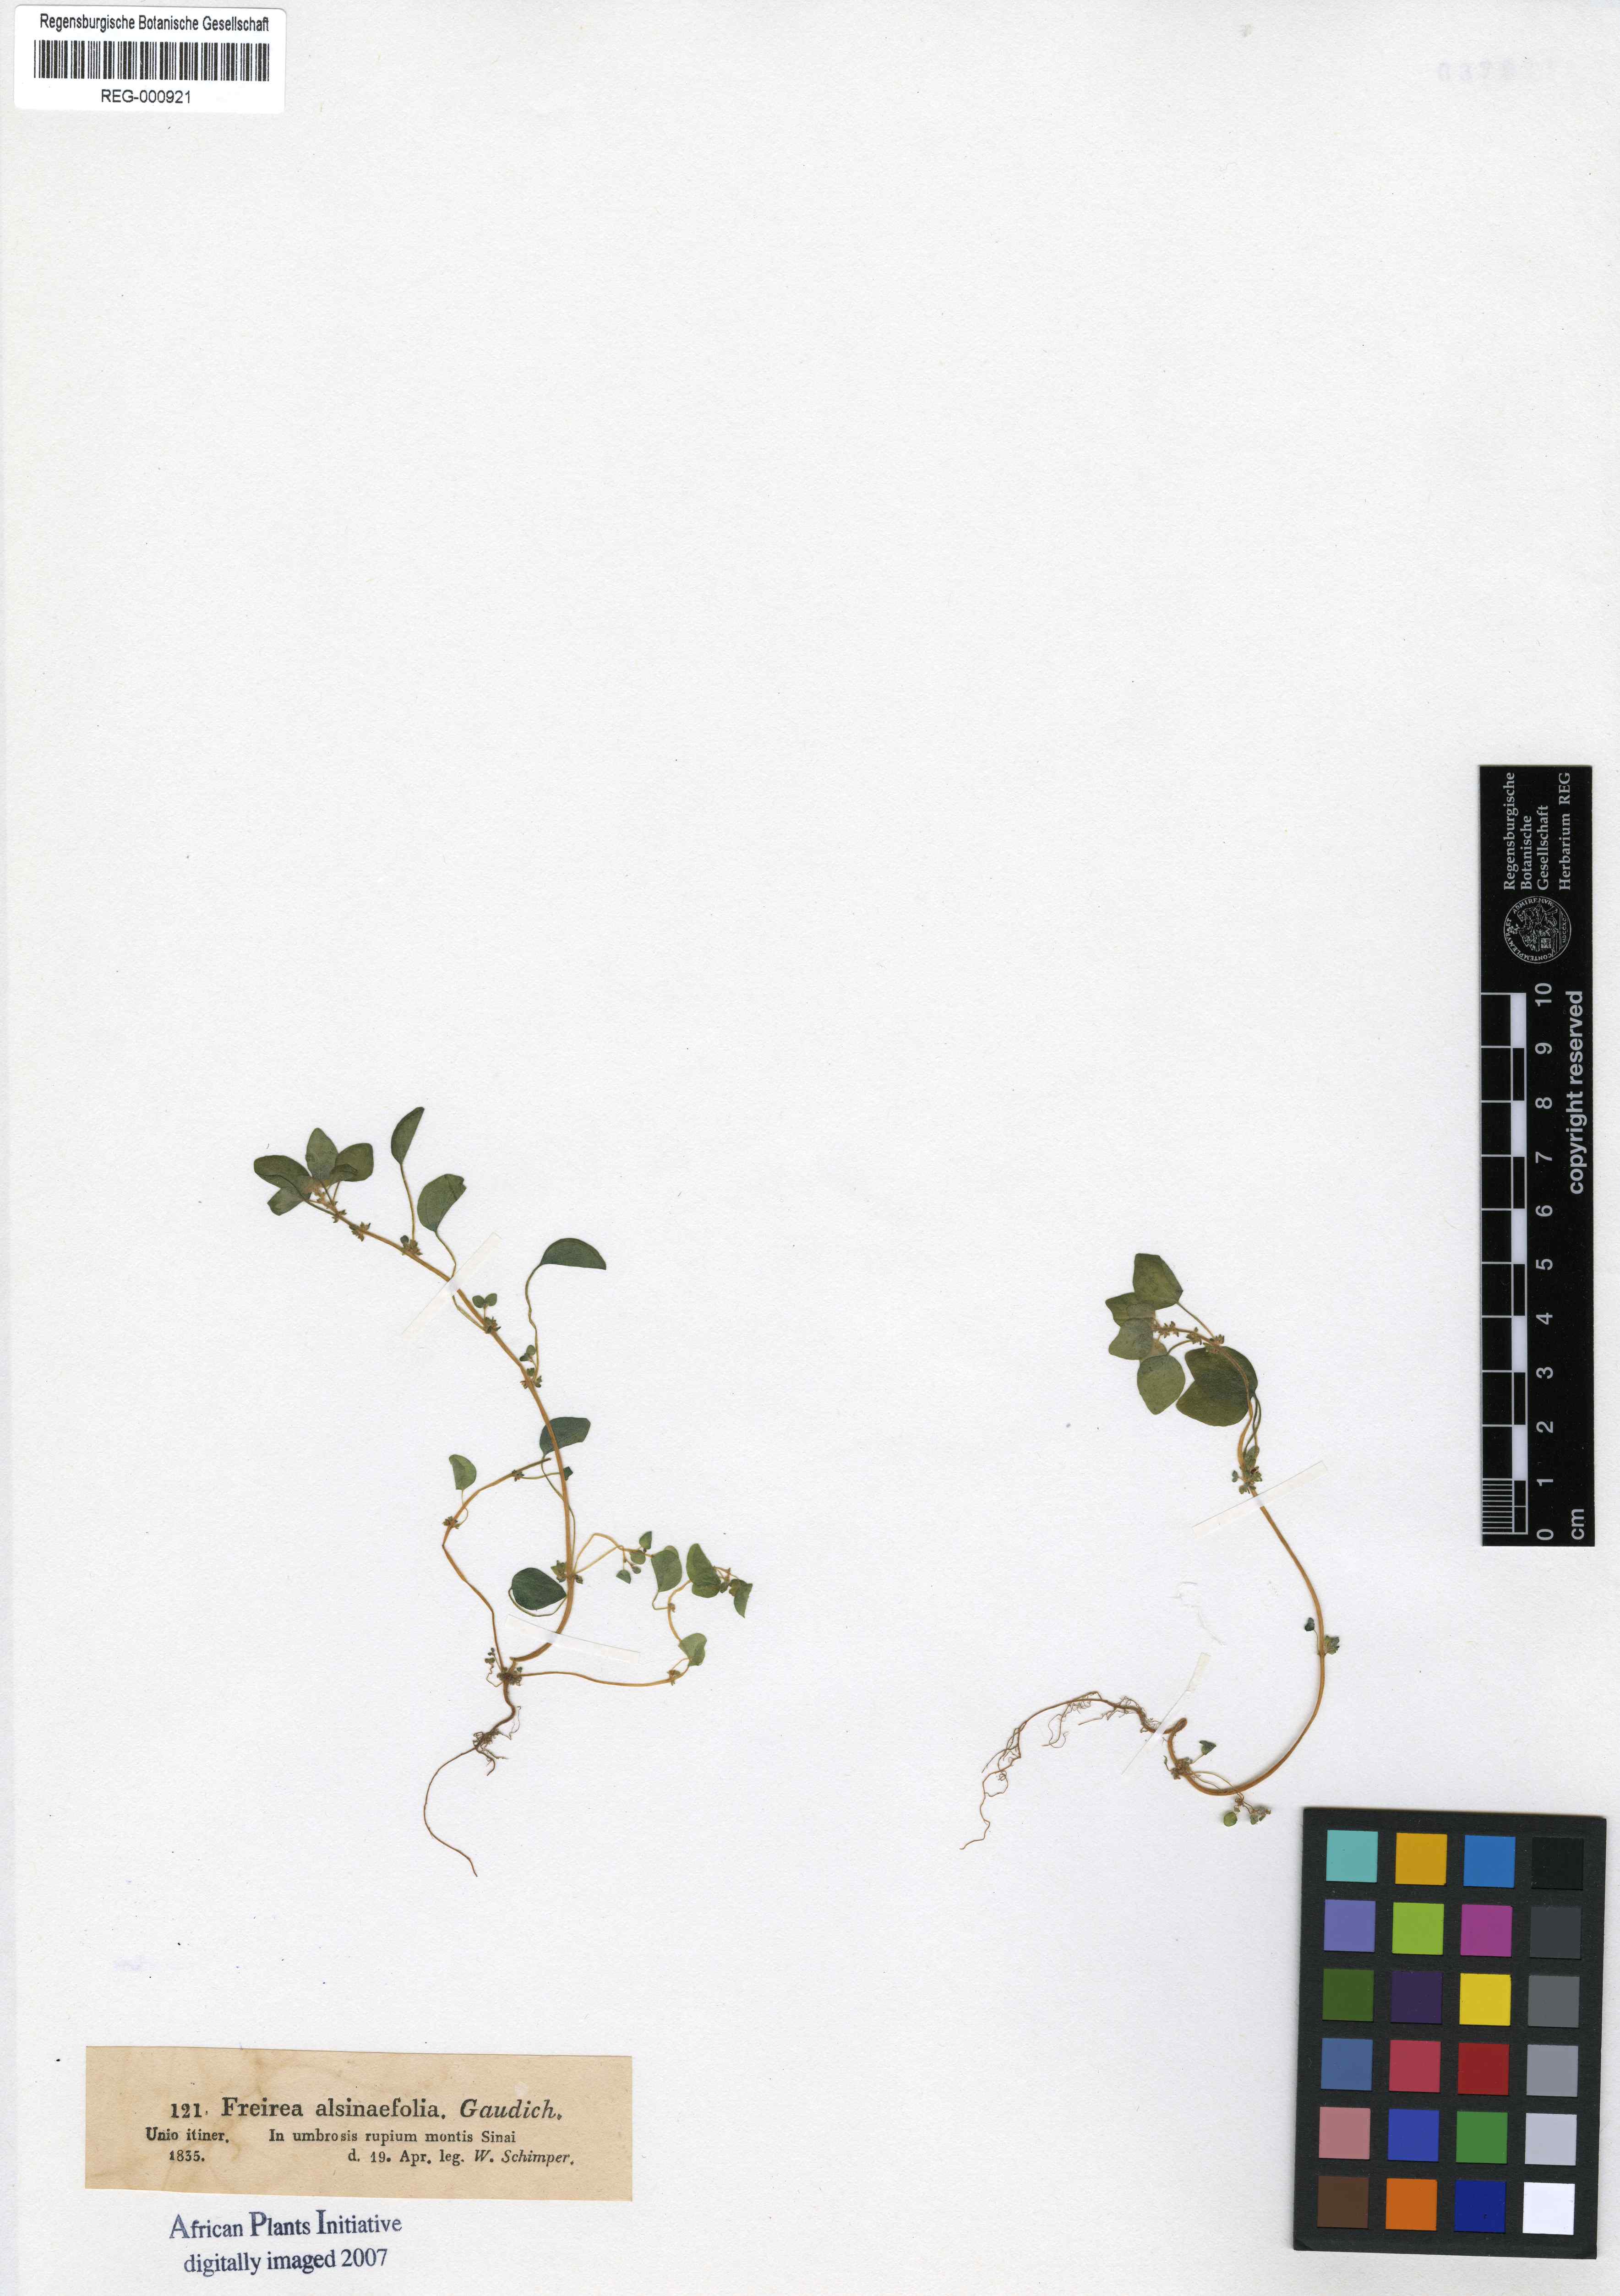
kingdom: Plantae
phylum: Tracheophyta
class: Magnoliopsida
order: Rosales
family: Urticaceae
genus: Parietaria
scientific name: Parietaria alsinifolia
